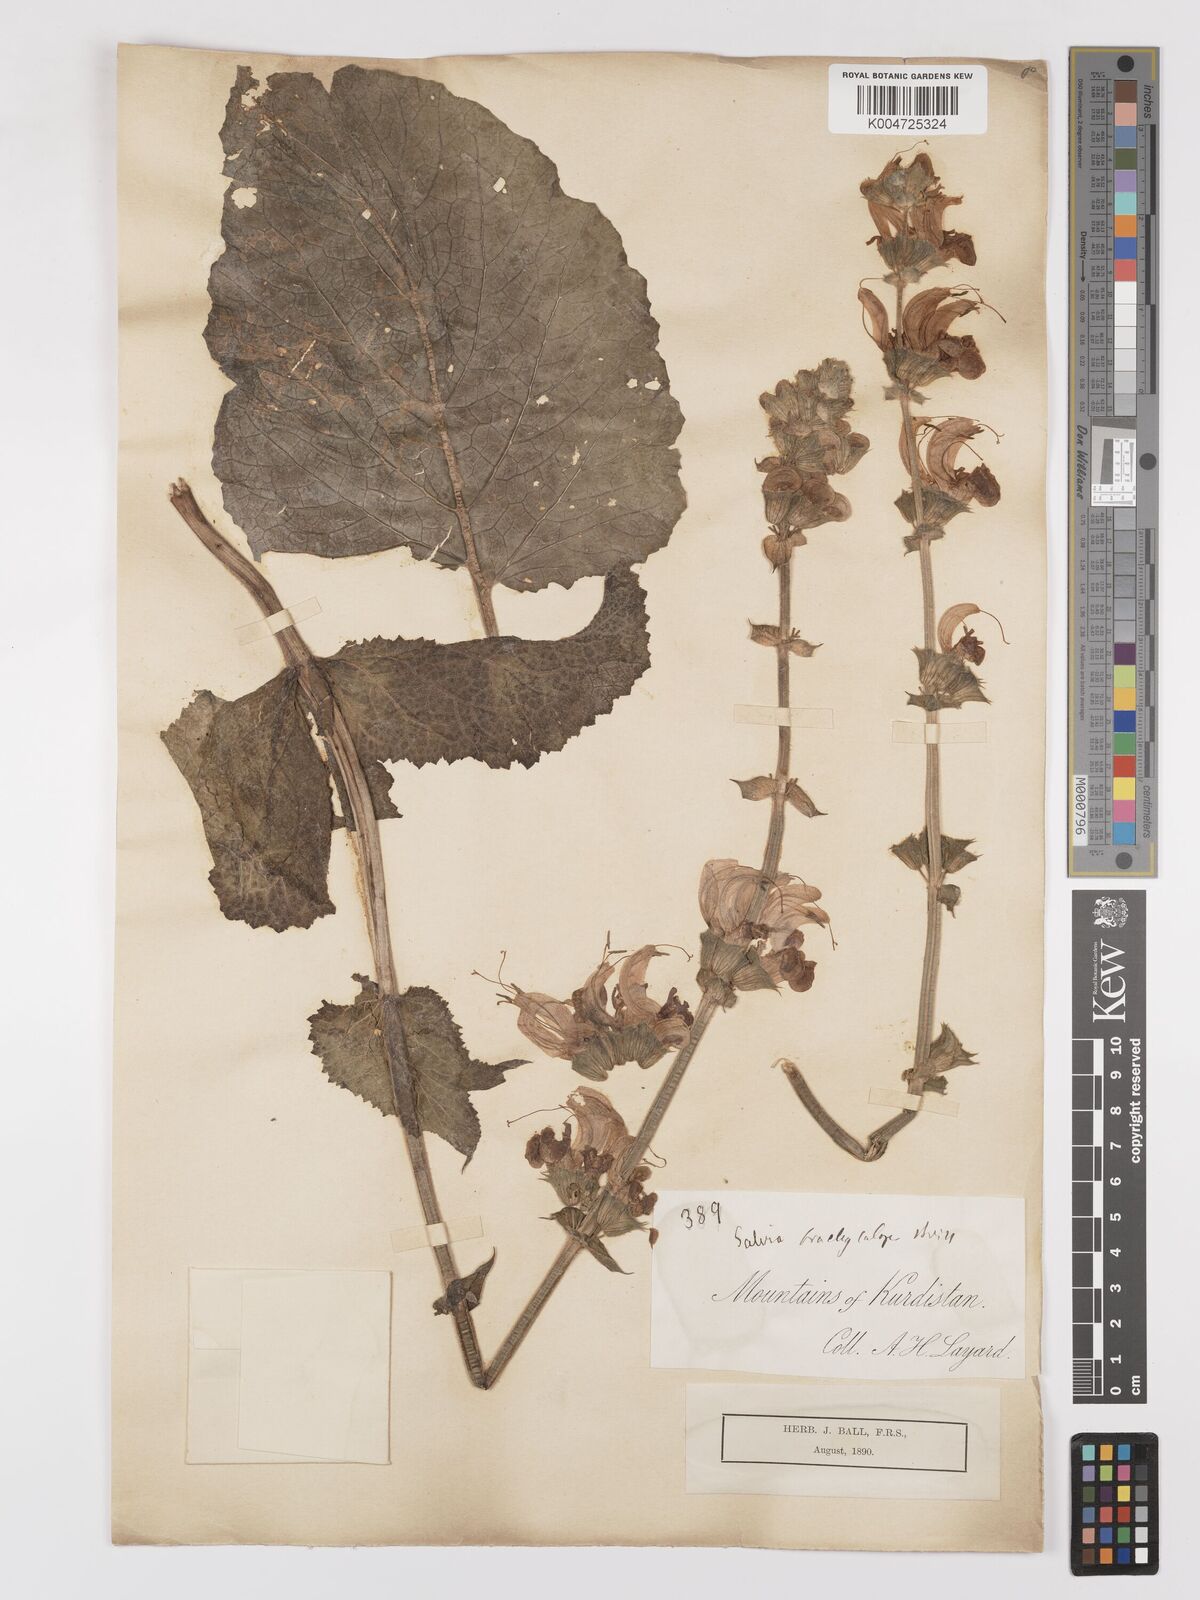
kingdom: Plantae
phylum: Tracheophyta
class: Magnoliopsida
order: Lamiales
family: Lamiaceae
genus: Salvia
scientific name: Salvia indica
